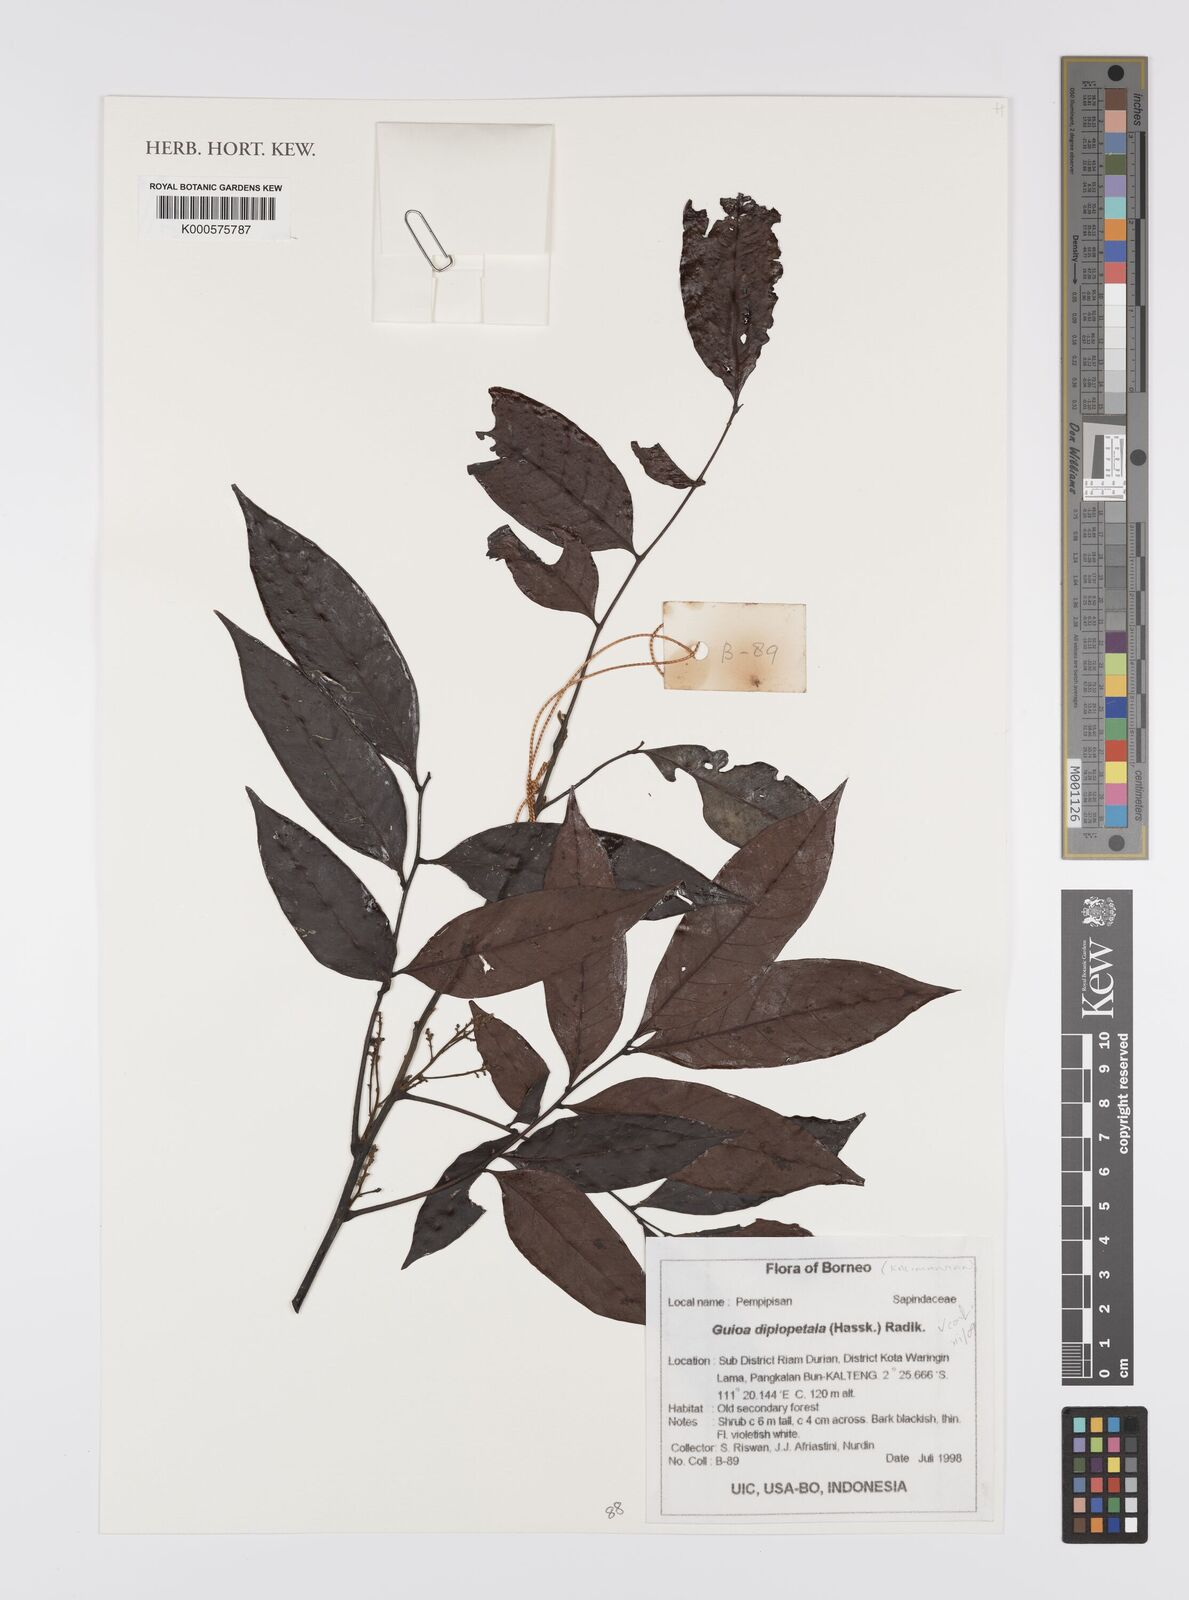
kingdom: Plantae
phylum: Tracheophyta
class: Magnoliopsida
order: Sapindales
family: Sapindaceae
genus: Guioa
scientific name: Guioa diplopetala
